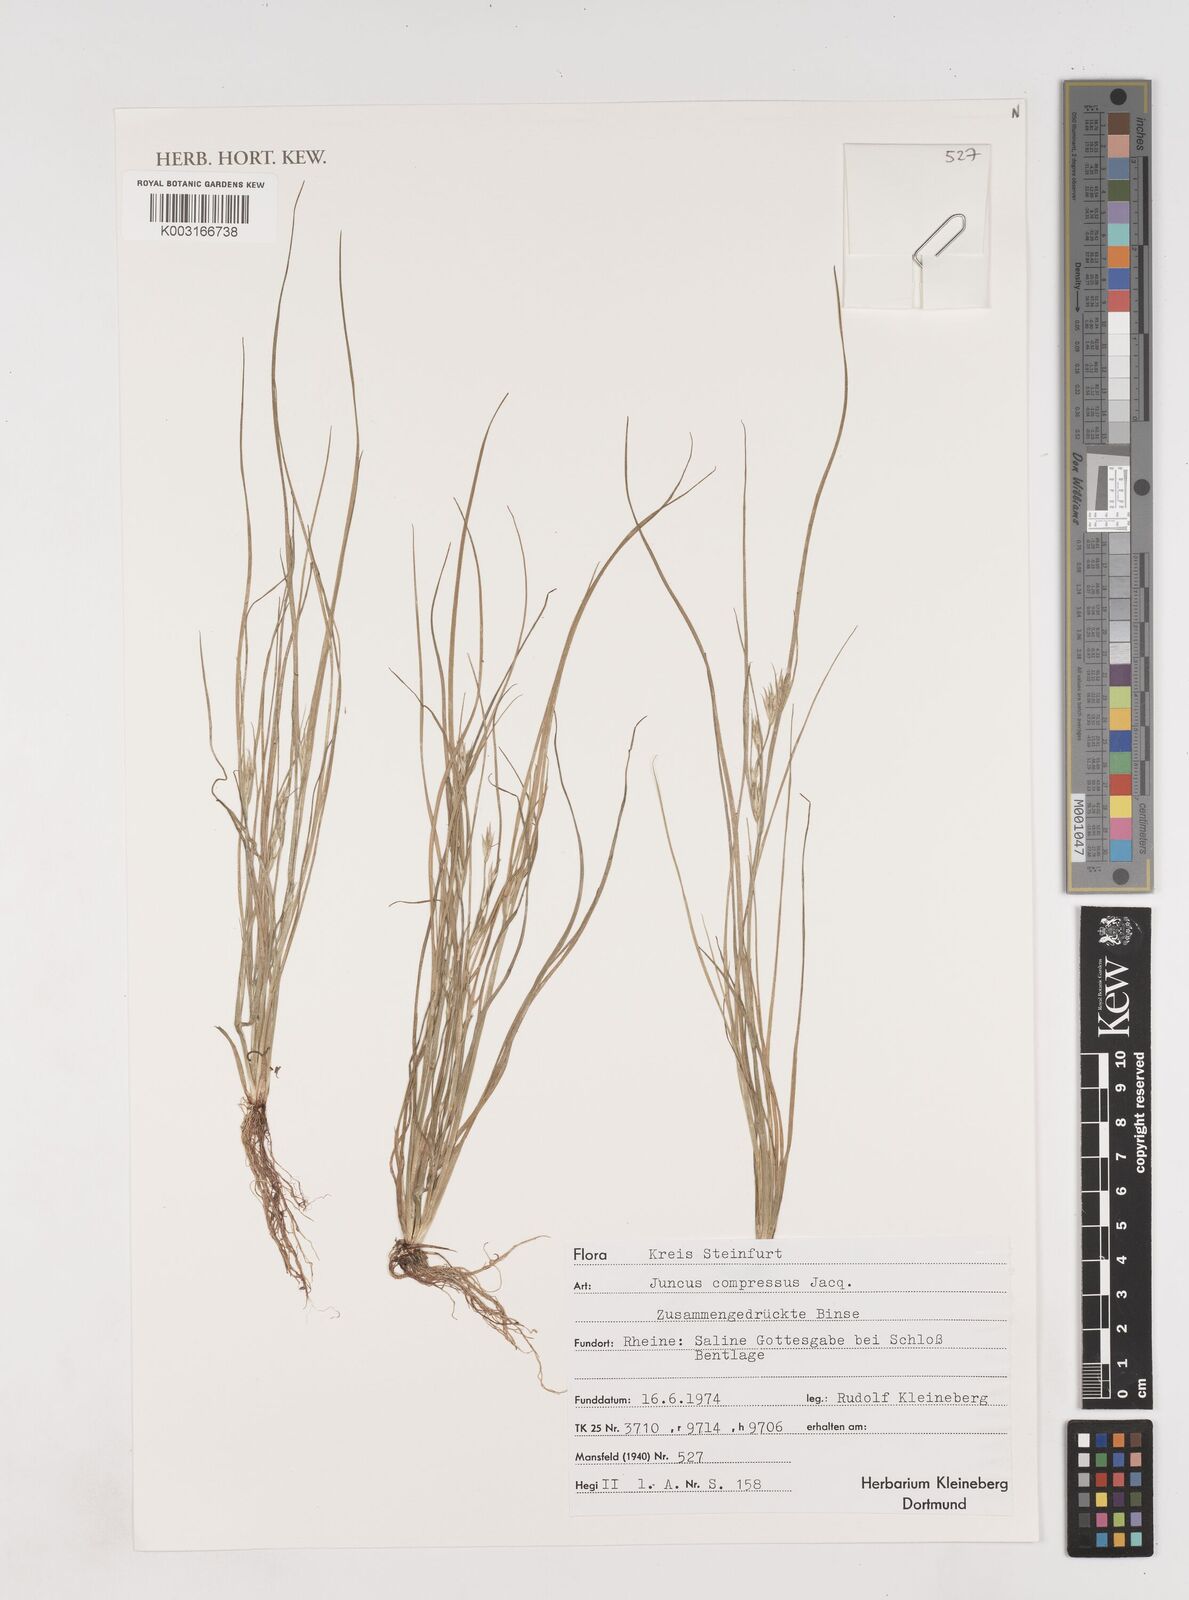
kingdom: Plantae
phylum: Tracheophyta
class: Liliopsida
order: Poales
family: Juncaceae
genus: Juncus
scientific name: Juncus
